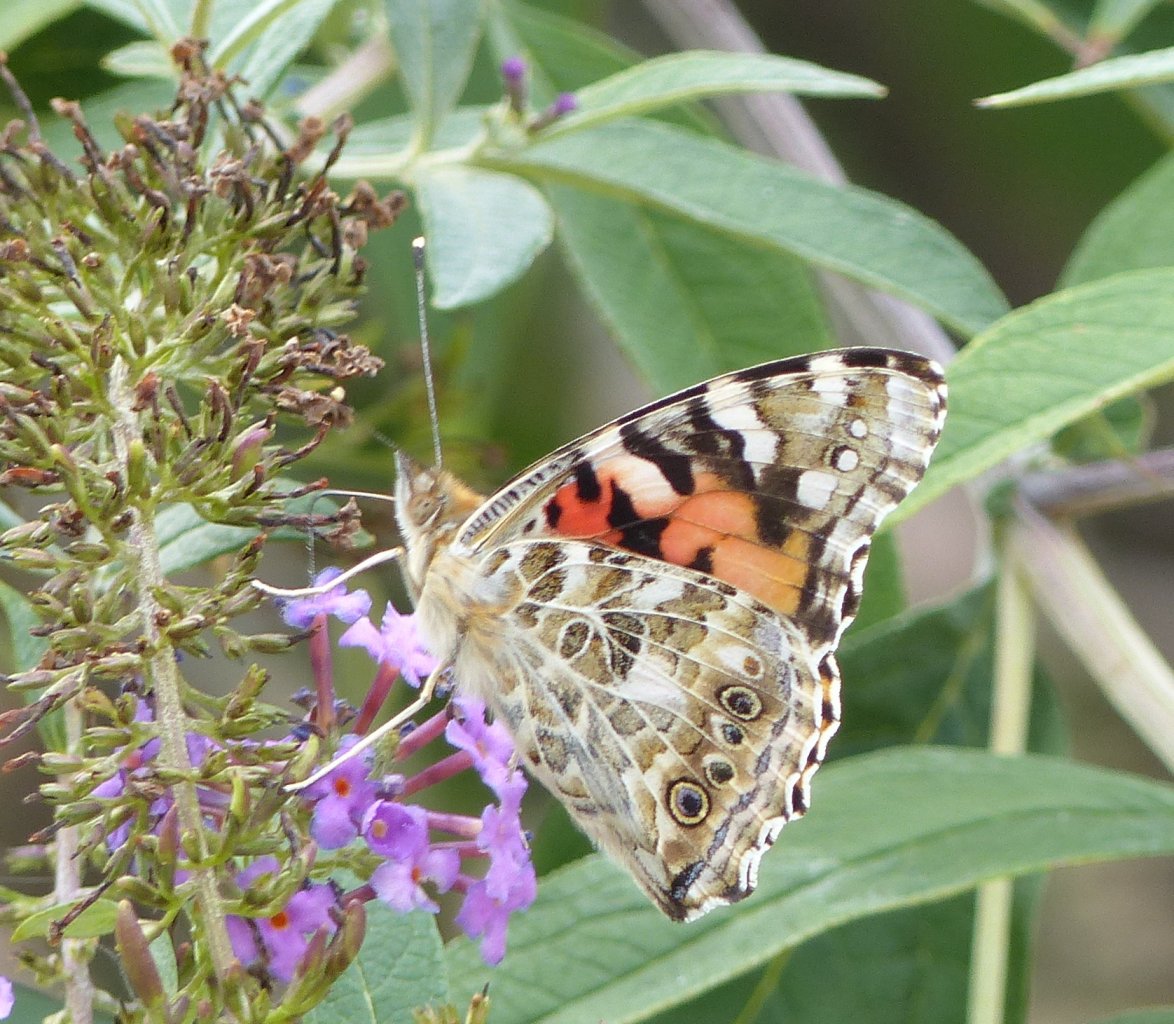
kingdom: Animalia
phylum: Arthropoda
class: Insecta
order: Lepidoptera
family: Nymphalidae
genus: Vanessa
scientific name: Vanessa cardui
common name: Painted Lady
